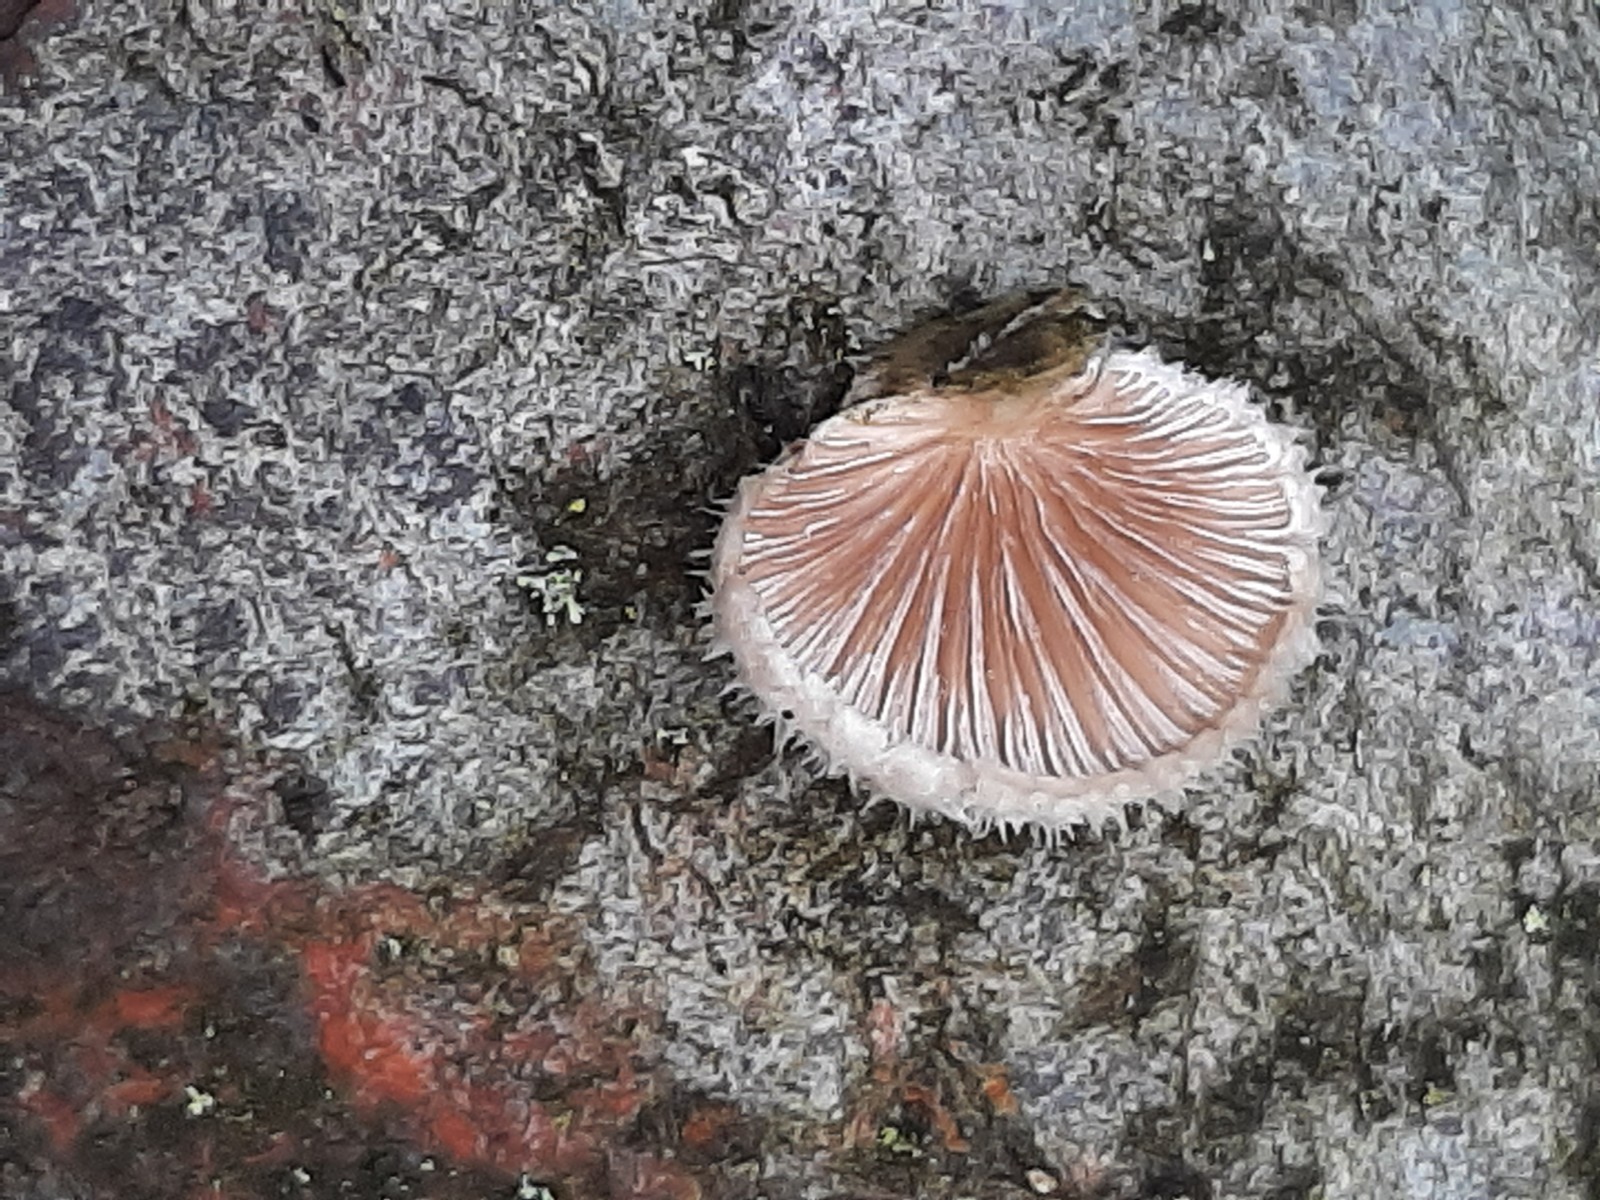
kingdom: Fungi
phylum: Basidiomycota
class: Agaricomycetes
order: Agaricales
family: Schizophyllaceae
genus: Schizophyllum
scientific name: Schizophyllum
